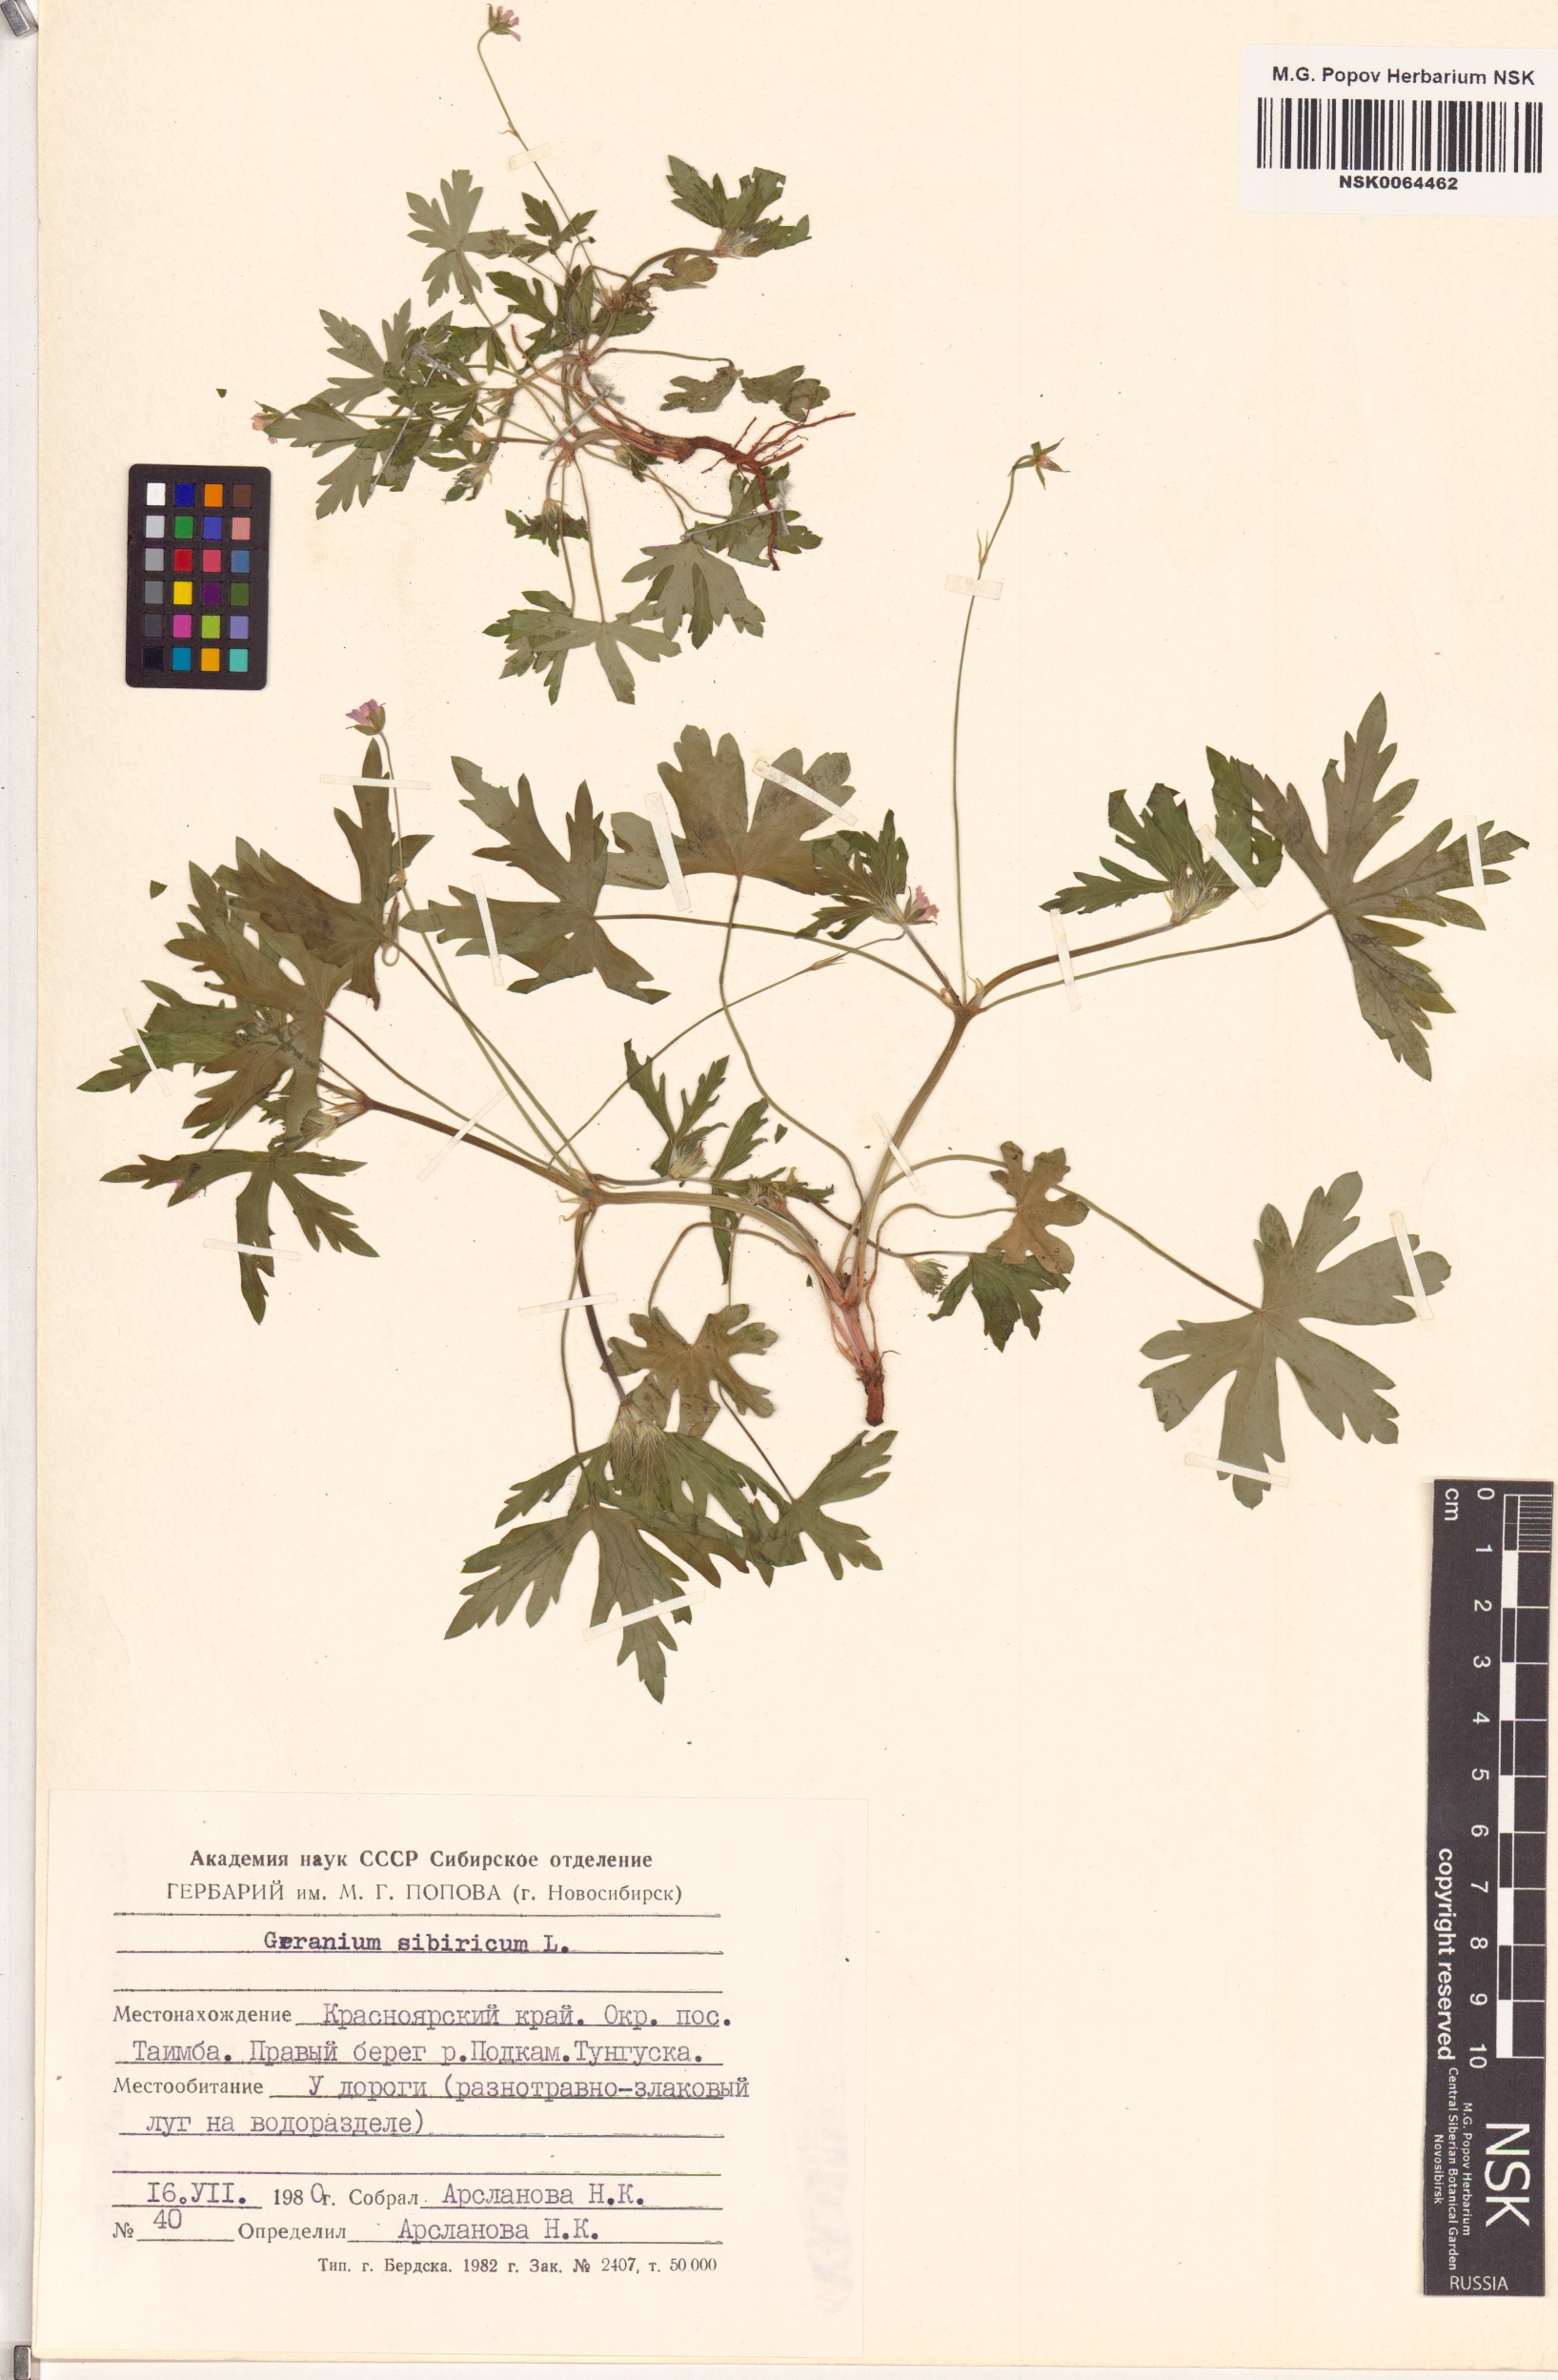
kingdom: Plantae
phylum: Tracheophyta
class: Magnoliopsida
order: Geraniales
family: Geraniaceae
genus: Geranium
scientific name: Geranium sibiricum
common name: Siberian crane's-bill
